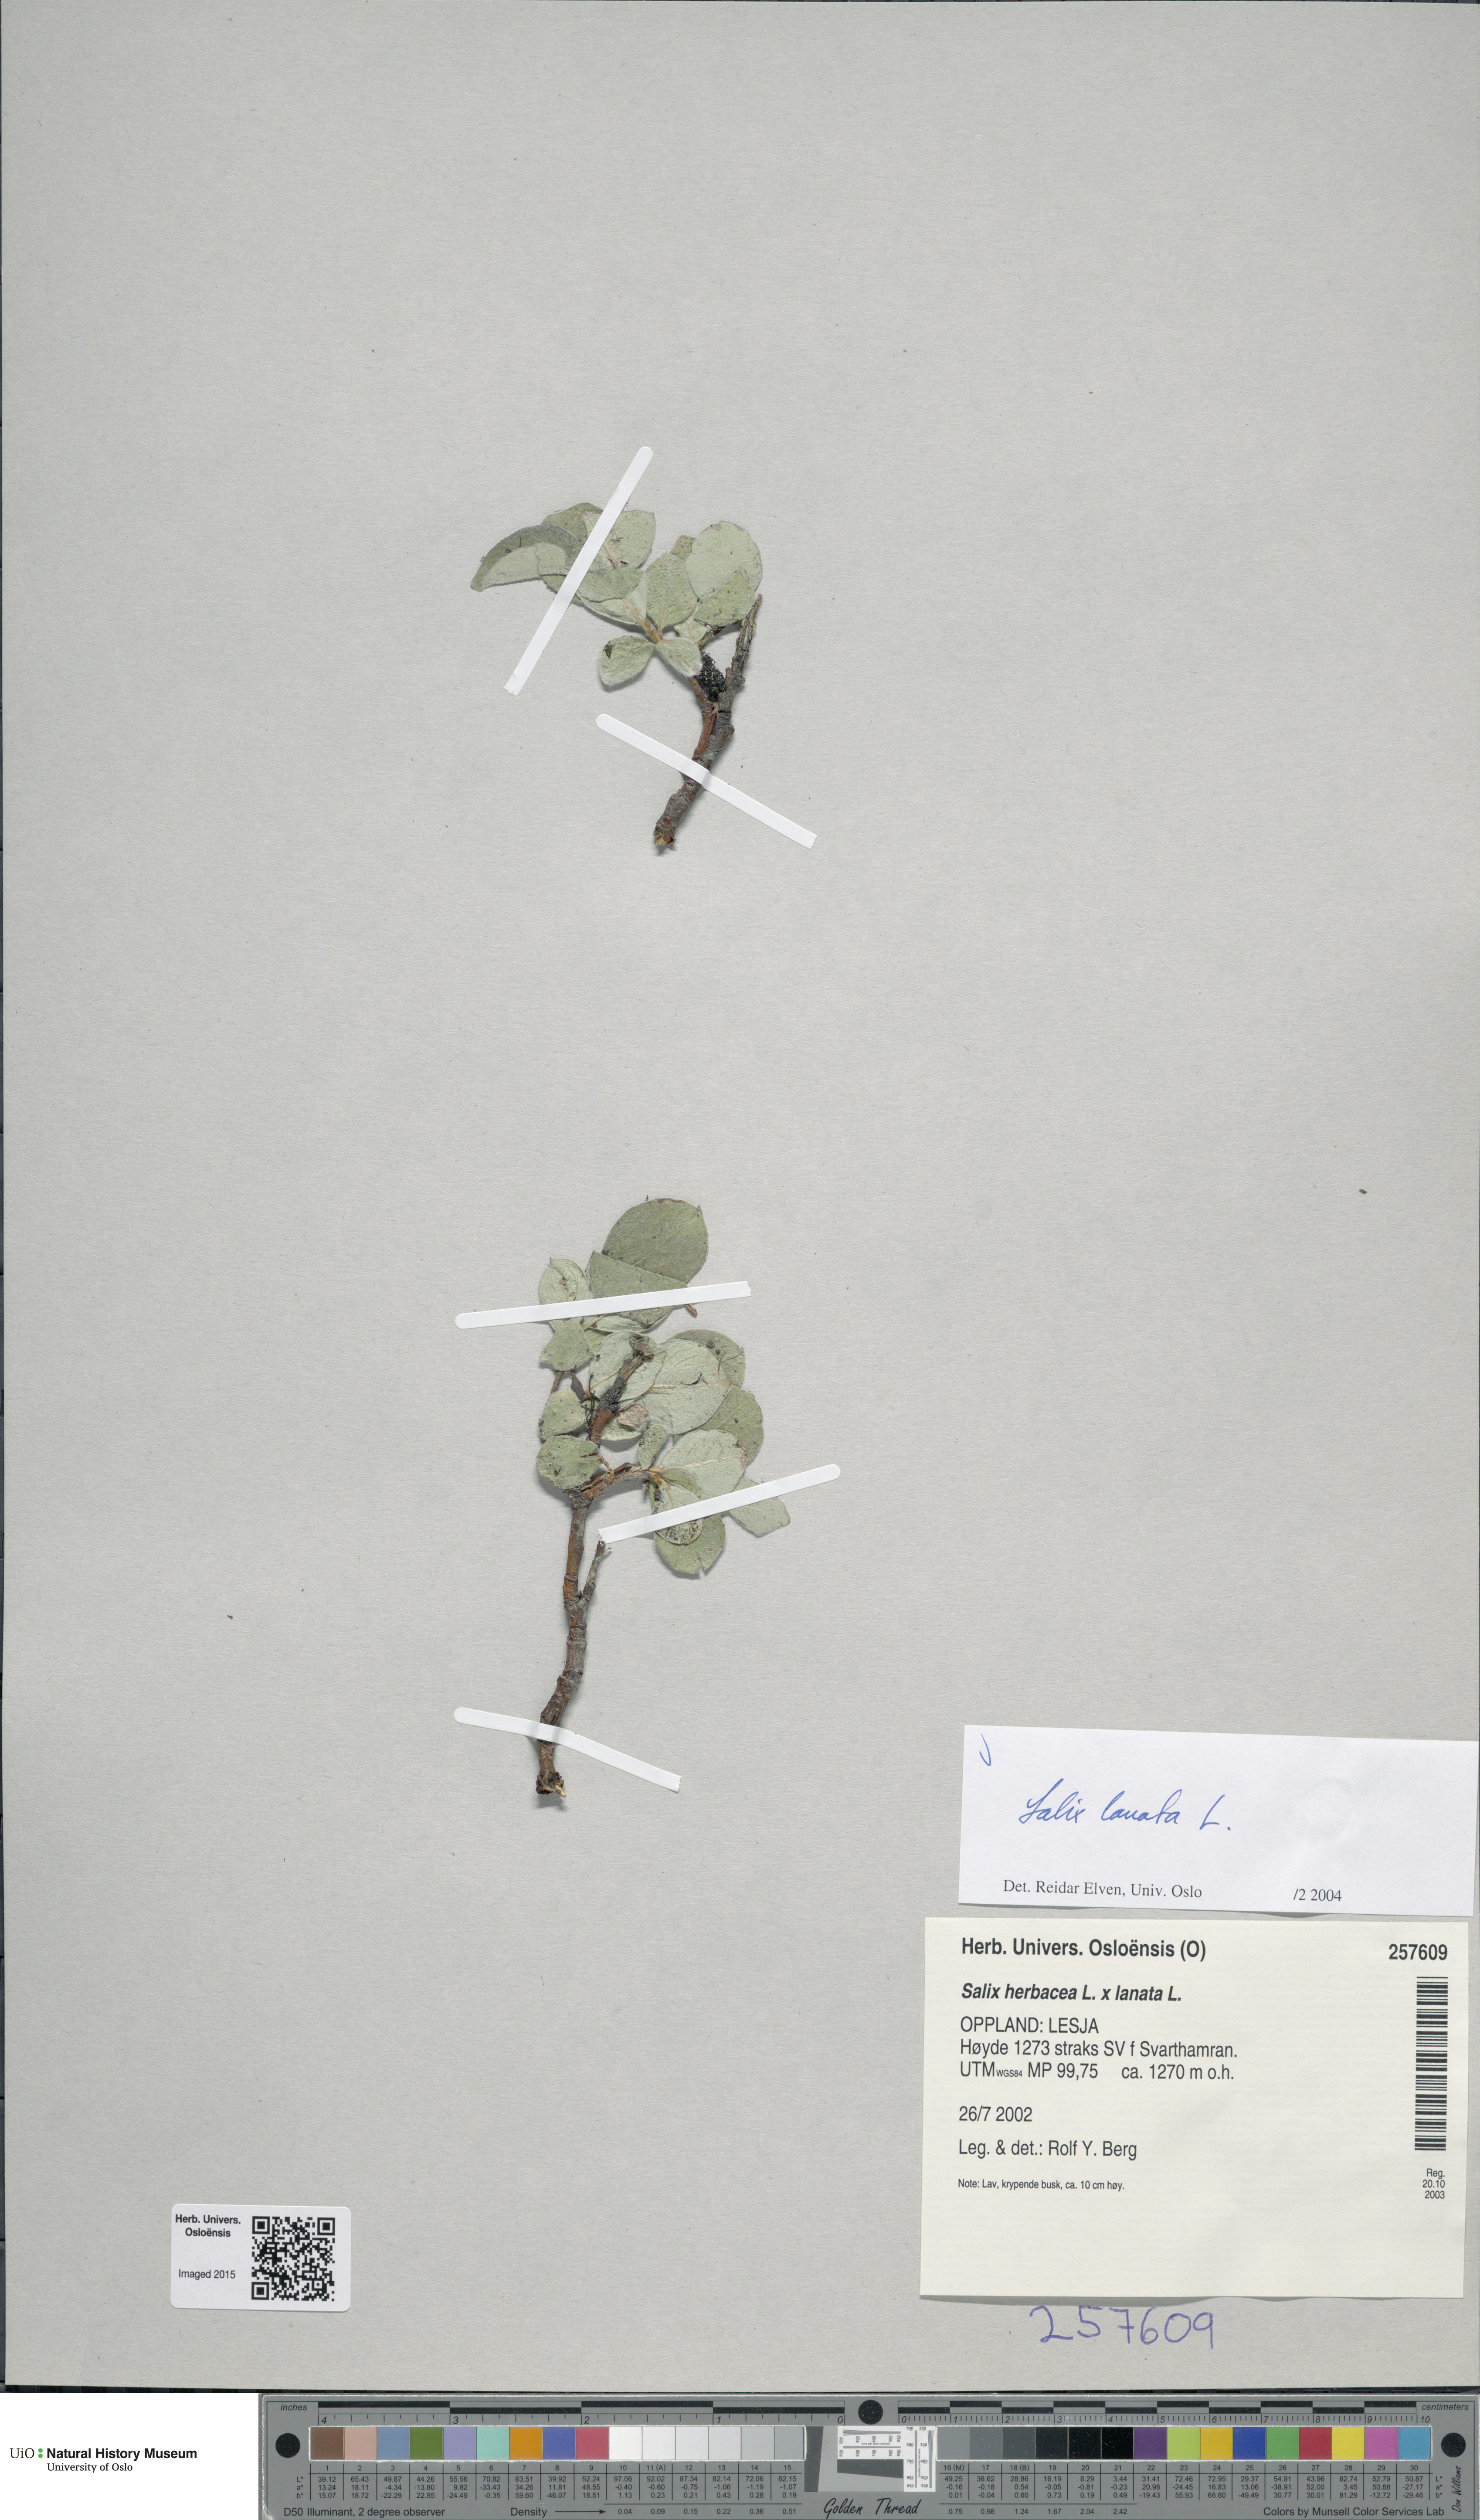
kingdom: Plantae
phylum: Tracheophyta
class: Magnoliopsida
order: Malpighiales
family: Salicaceae
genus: Salix
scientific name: Salix lanata
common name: Woolly willow
